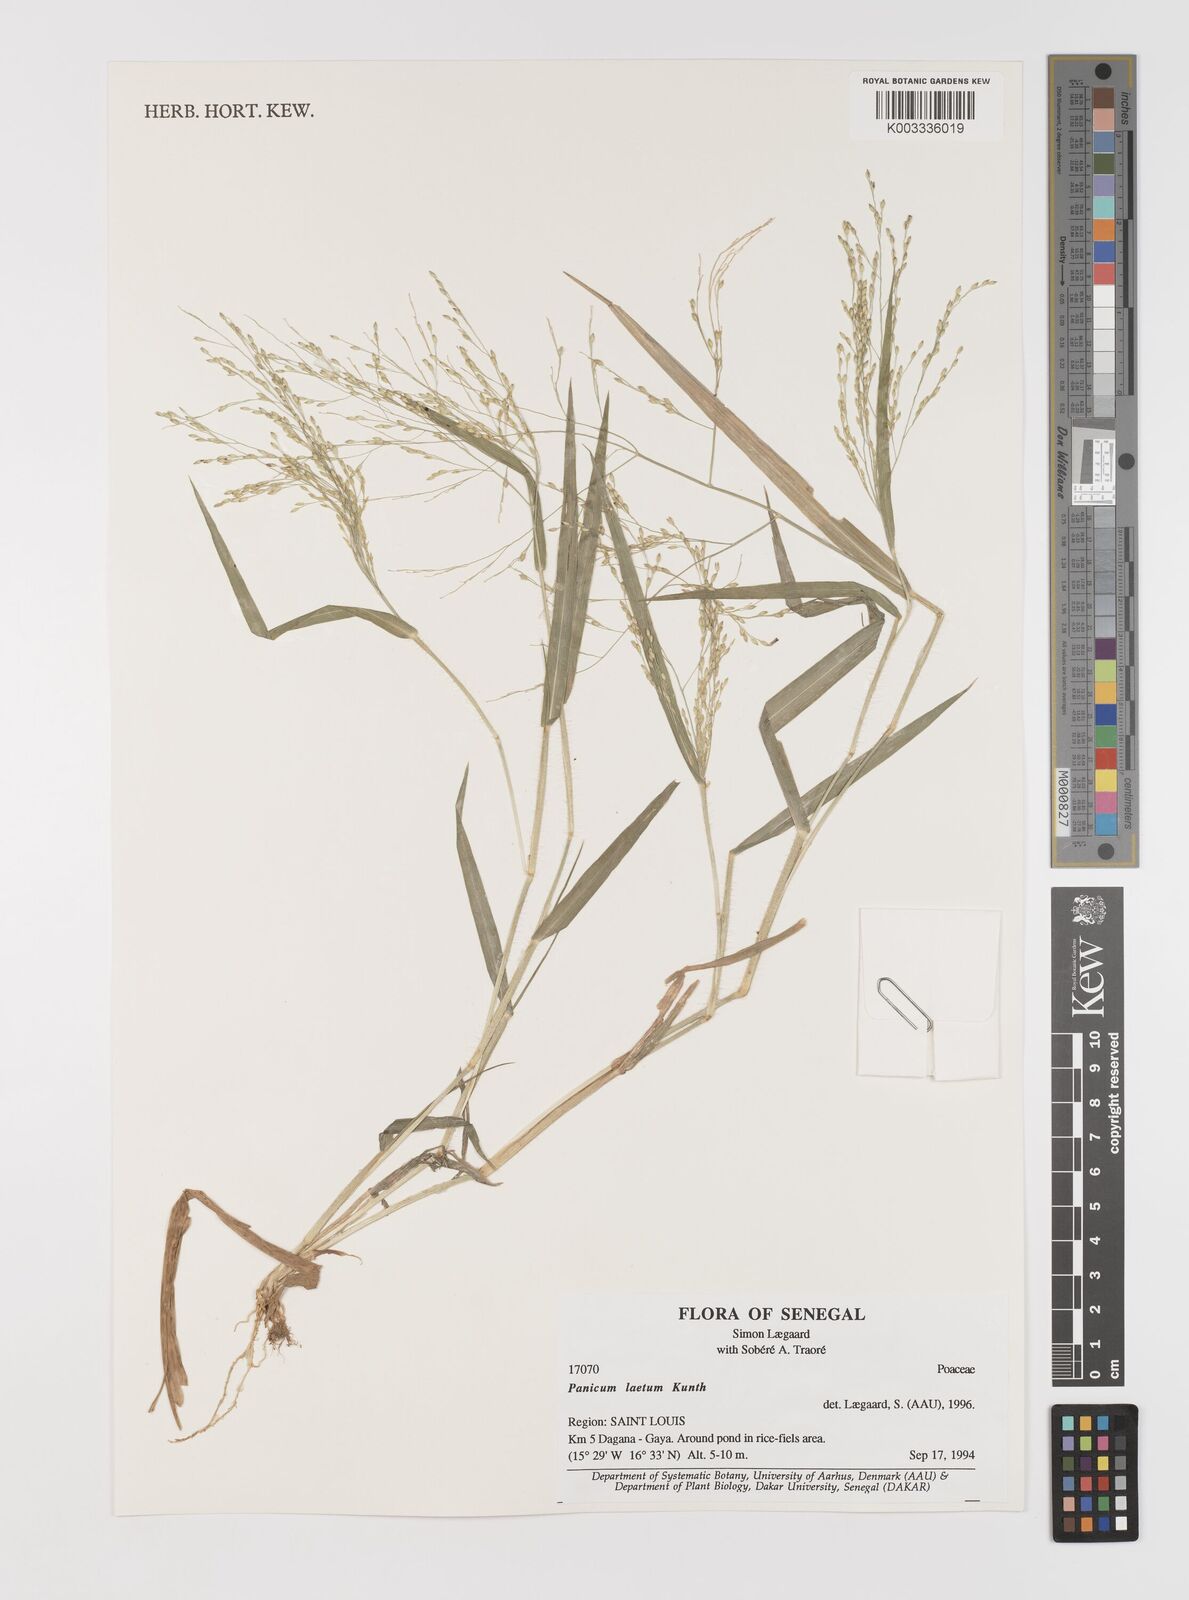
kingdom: Plantae
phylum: Tracheophyta
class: Liliopsida
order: Poales
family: Poaceae
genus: Panicum
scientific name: Panicum laetum
